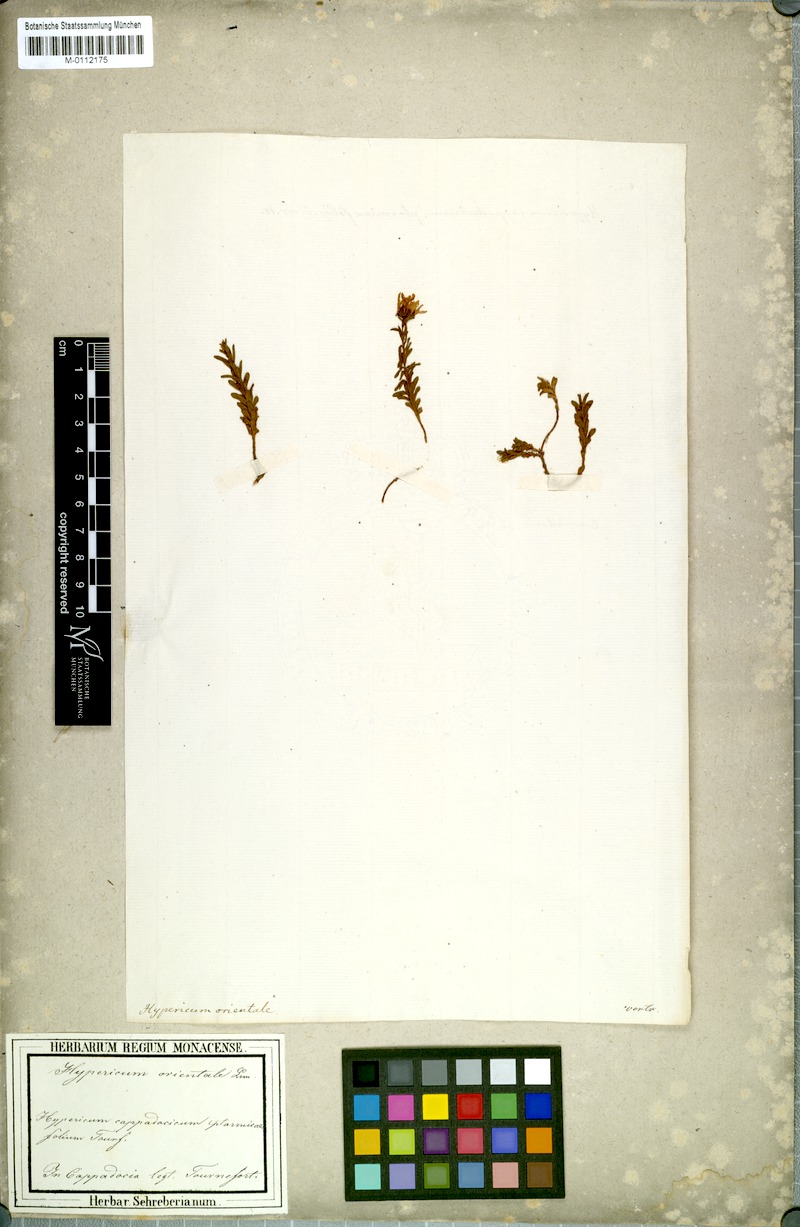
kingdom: Plantae
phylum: Tracheophyta
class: Magnoliopsida
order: Malpighiales
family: Hypericaceae
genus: Hypericum
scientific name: Hypericum orientale
